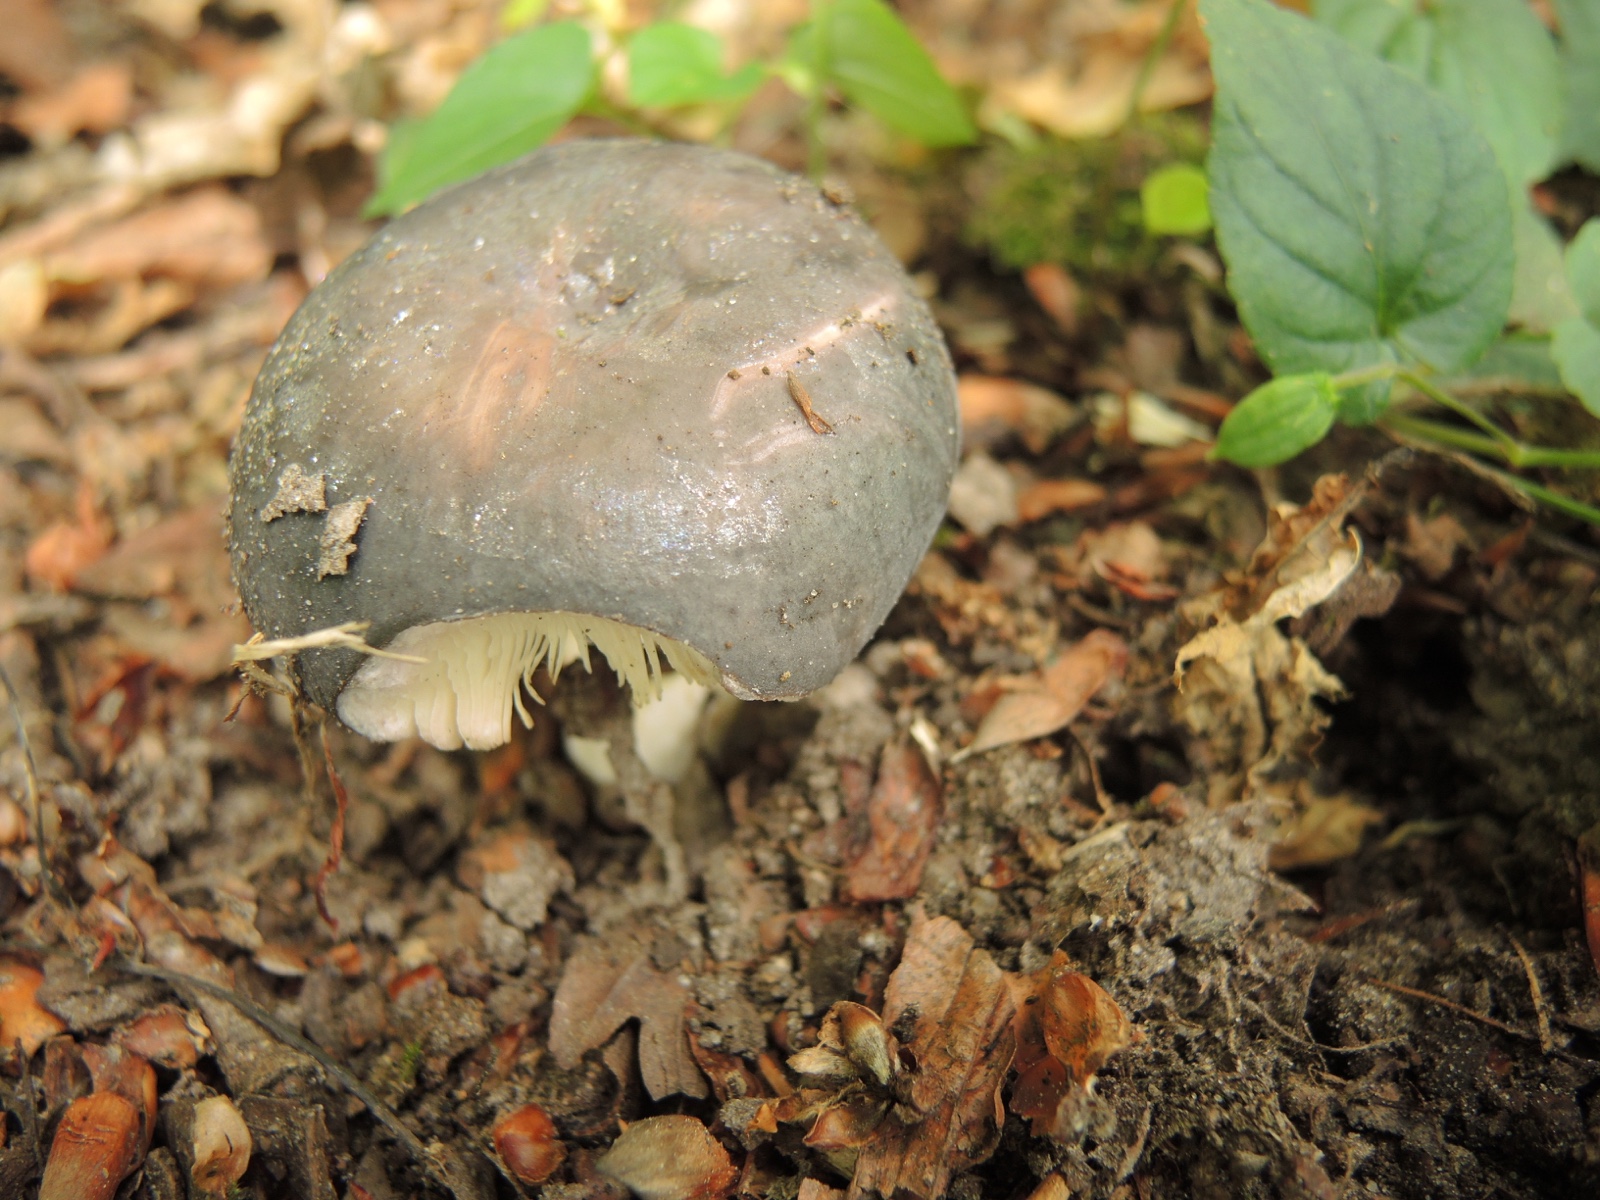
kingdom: Fungi
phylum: Basidiomycota
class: Agaricomycetes
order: Russulales
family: Russulaceae
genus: Russula
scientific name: Russula ionochlora
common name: violetgrøn skørhat
